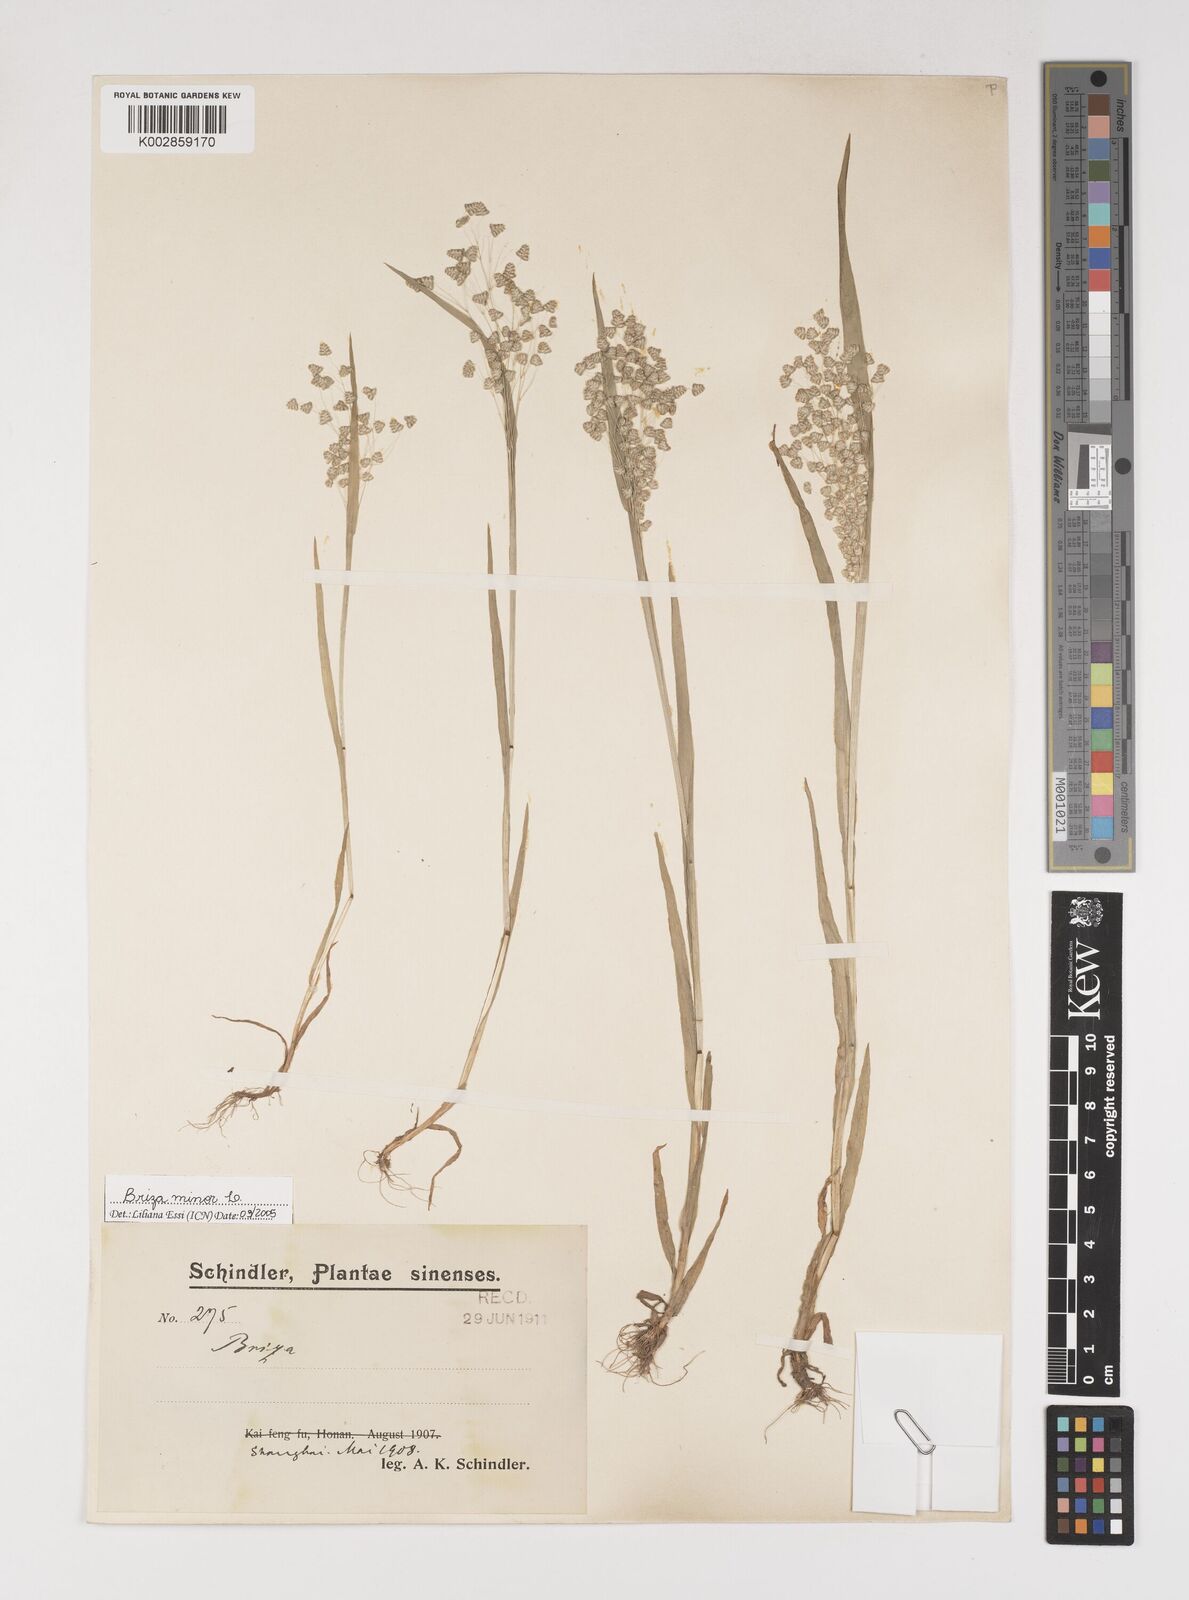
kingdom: Plantae
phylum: Tracheophyta
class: Liliopsida
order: Poales
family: Poaceae
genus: Briza
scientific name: Briza minor
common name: Lesser quaking-grass
